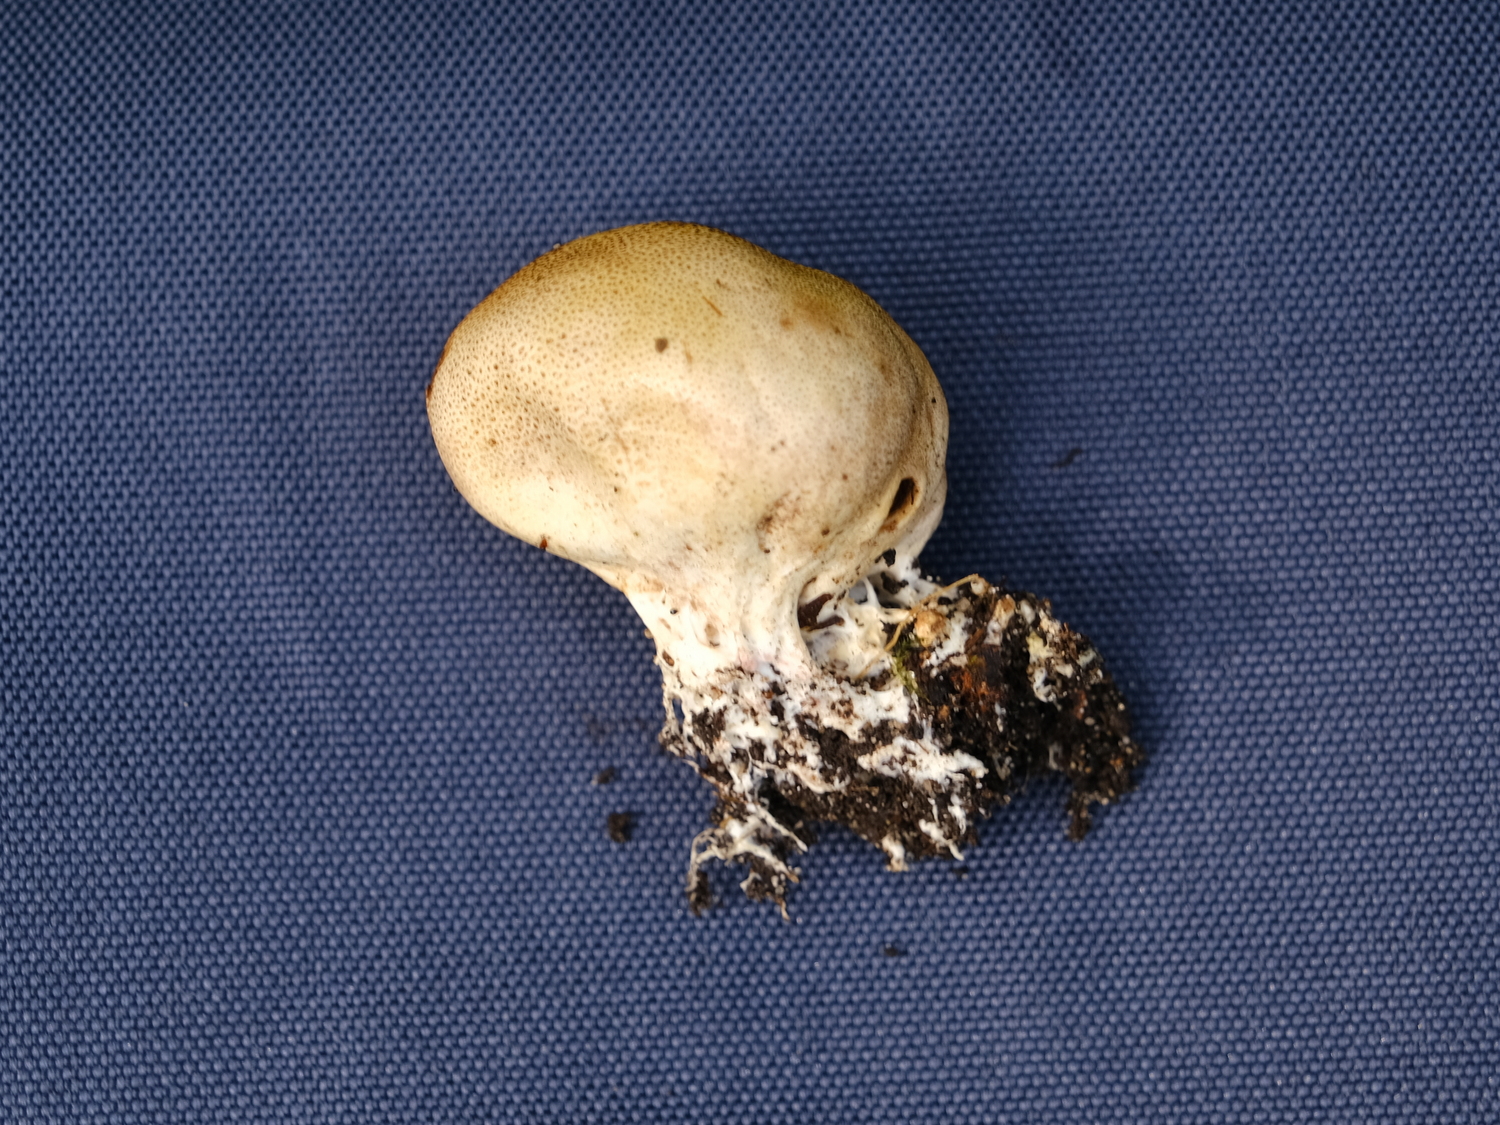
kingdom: Fungi
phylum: Basidiomycota
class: Agaricomycetes
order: Boletales
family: Sclerodermataceae
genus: Scleroderma
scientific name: Scleroderma
